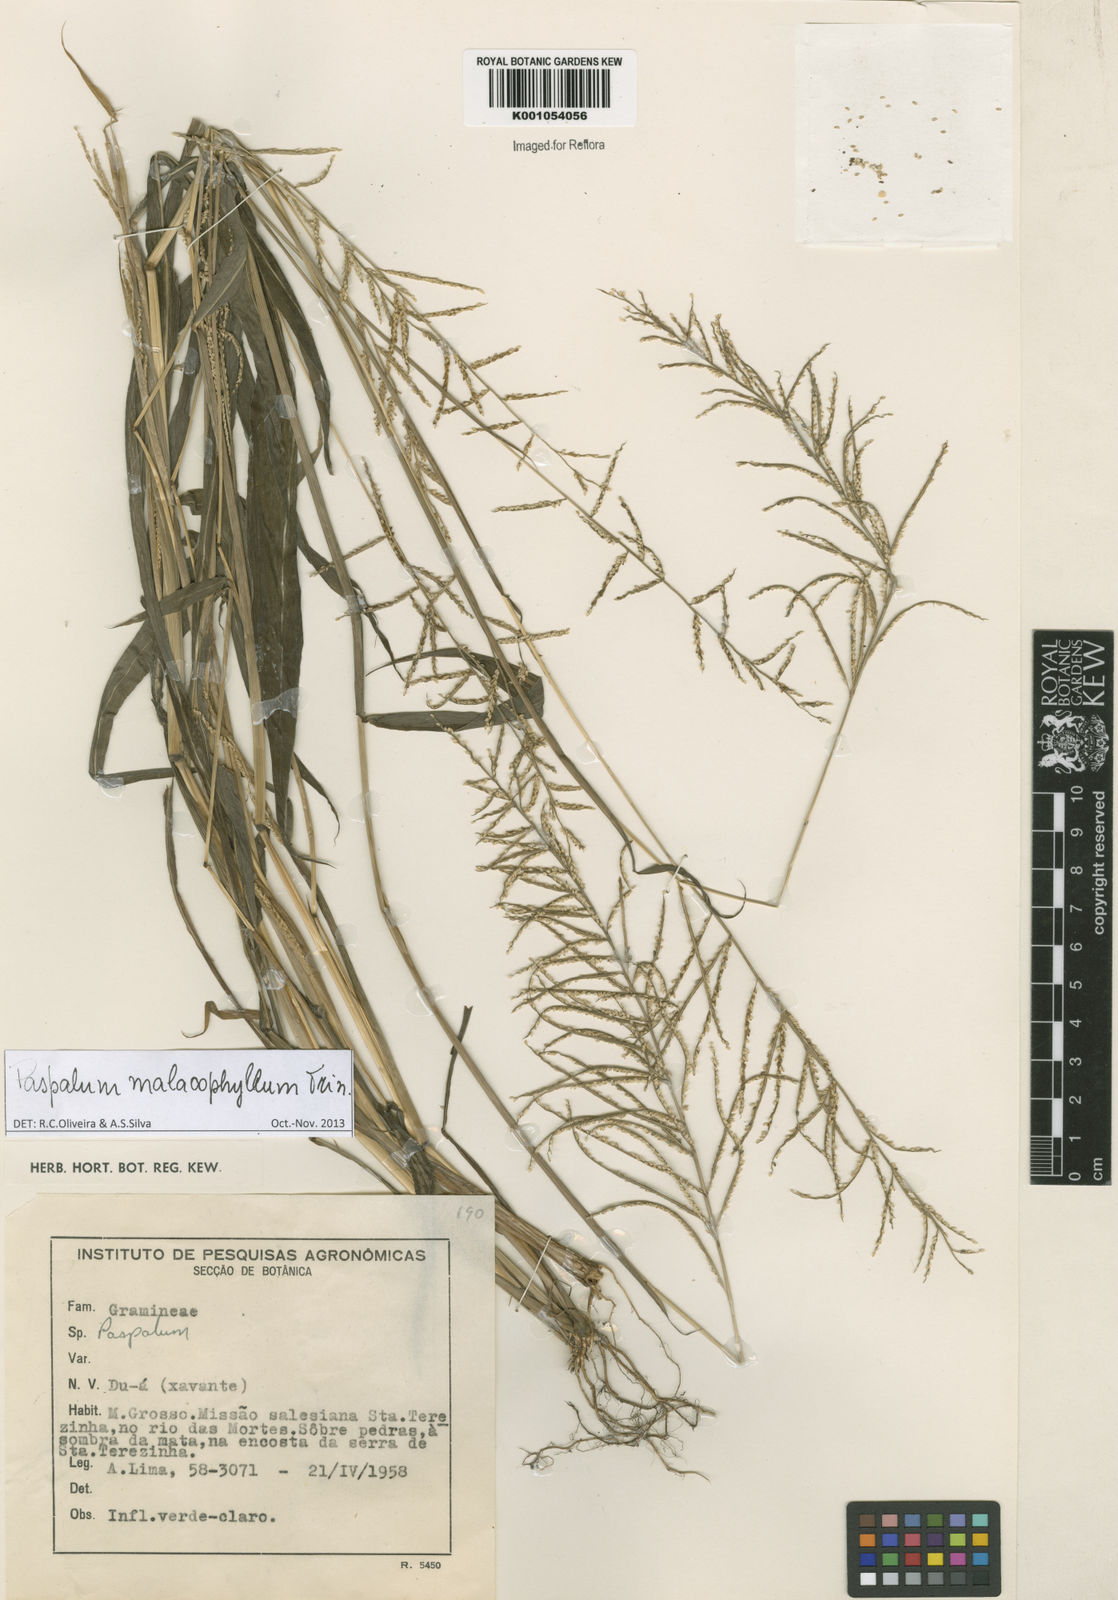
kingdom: Plantae
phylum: Tracheophyta
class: Liliopsida
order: Poales
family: Poaceae
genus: Paspalum
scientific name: Paspalum malacophyllum
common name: Ribbed paspalum
